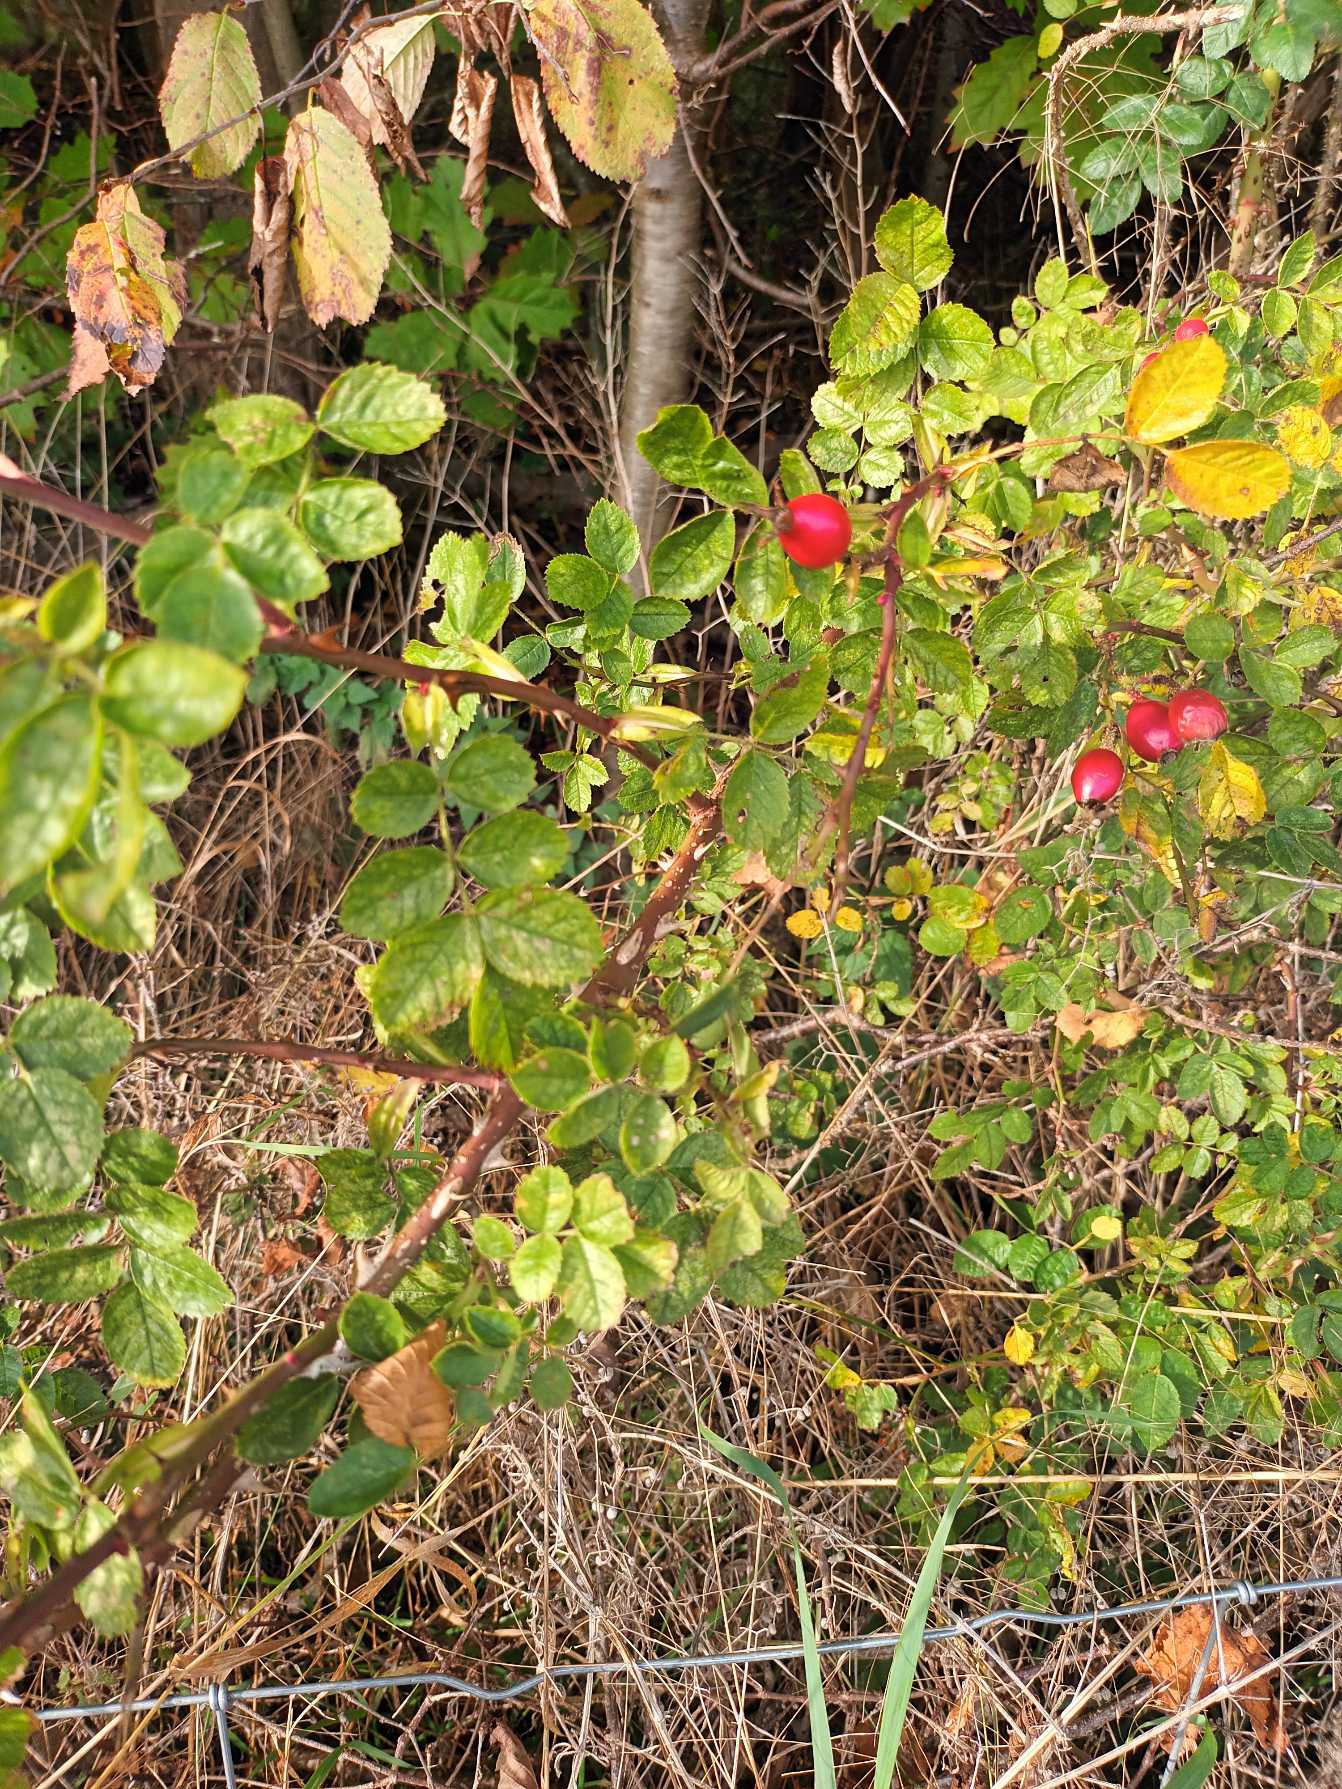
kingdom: Plantae
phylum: Tracheophyta
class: Magnoliopsida
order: Rosales
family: Rosaceae
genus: Rosa
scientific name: Rosa rubiginosa
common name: Æble-rose
